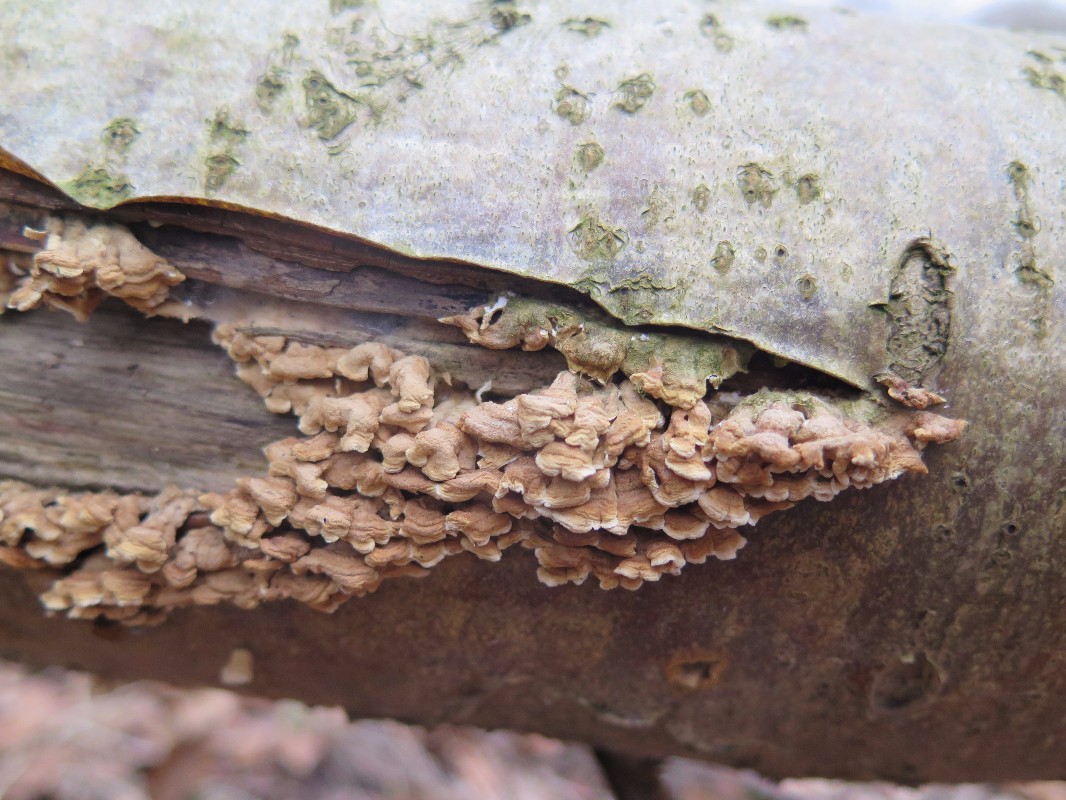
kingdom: Fungi
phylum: Basidiomycota
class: Agaricomycetes
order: Amylocorticiales
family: Amylocorticiaceae
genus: Plicaturopsis
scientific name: Plicaturopsis crispa
